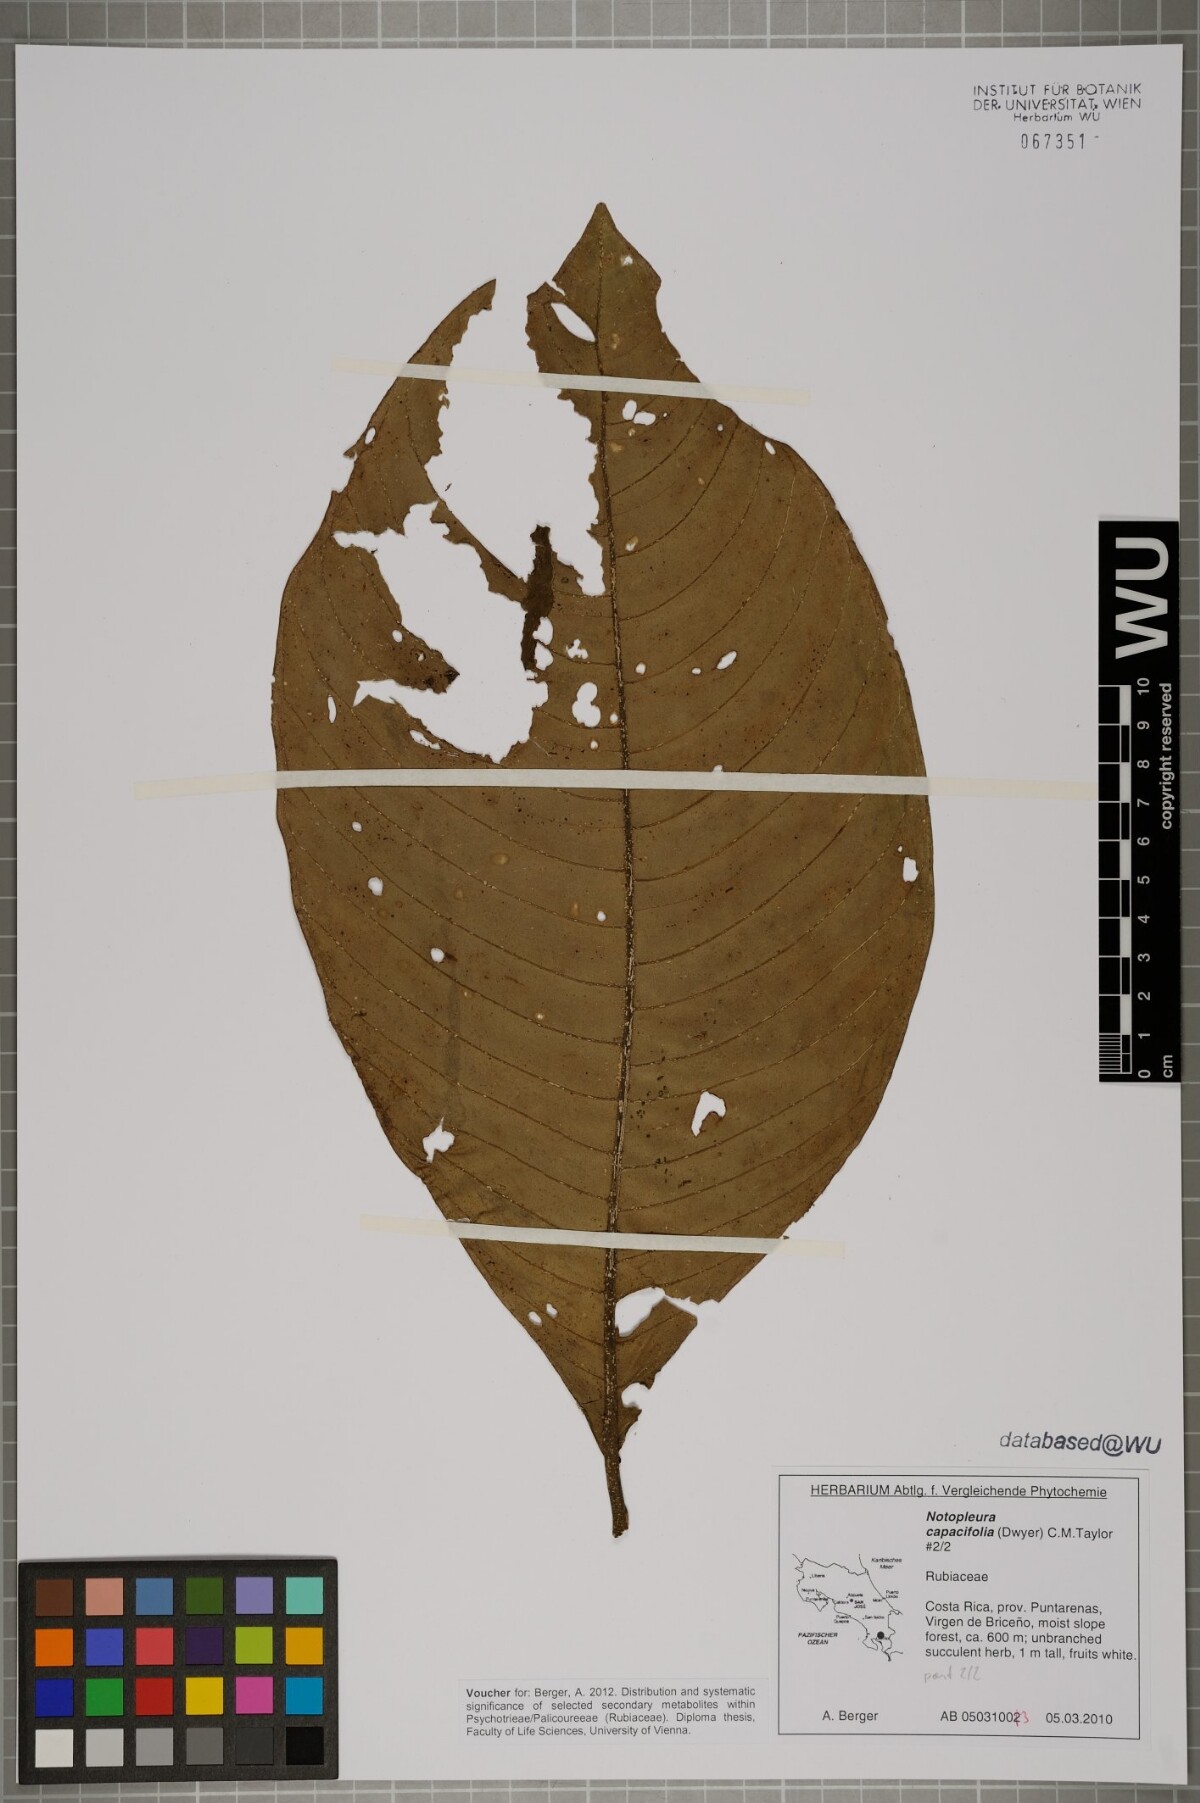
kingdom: Plantae
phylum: Tracheophyta
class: Magnoliopsida
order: Gentianales
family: Rubiaceae
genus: Notopleura
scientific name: Notopleura capacifolia
